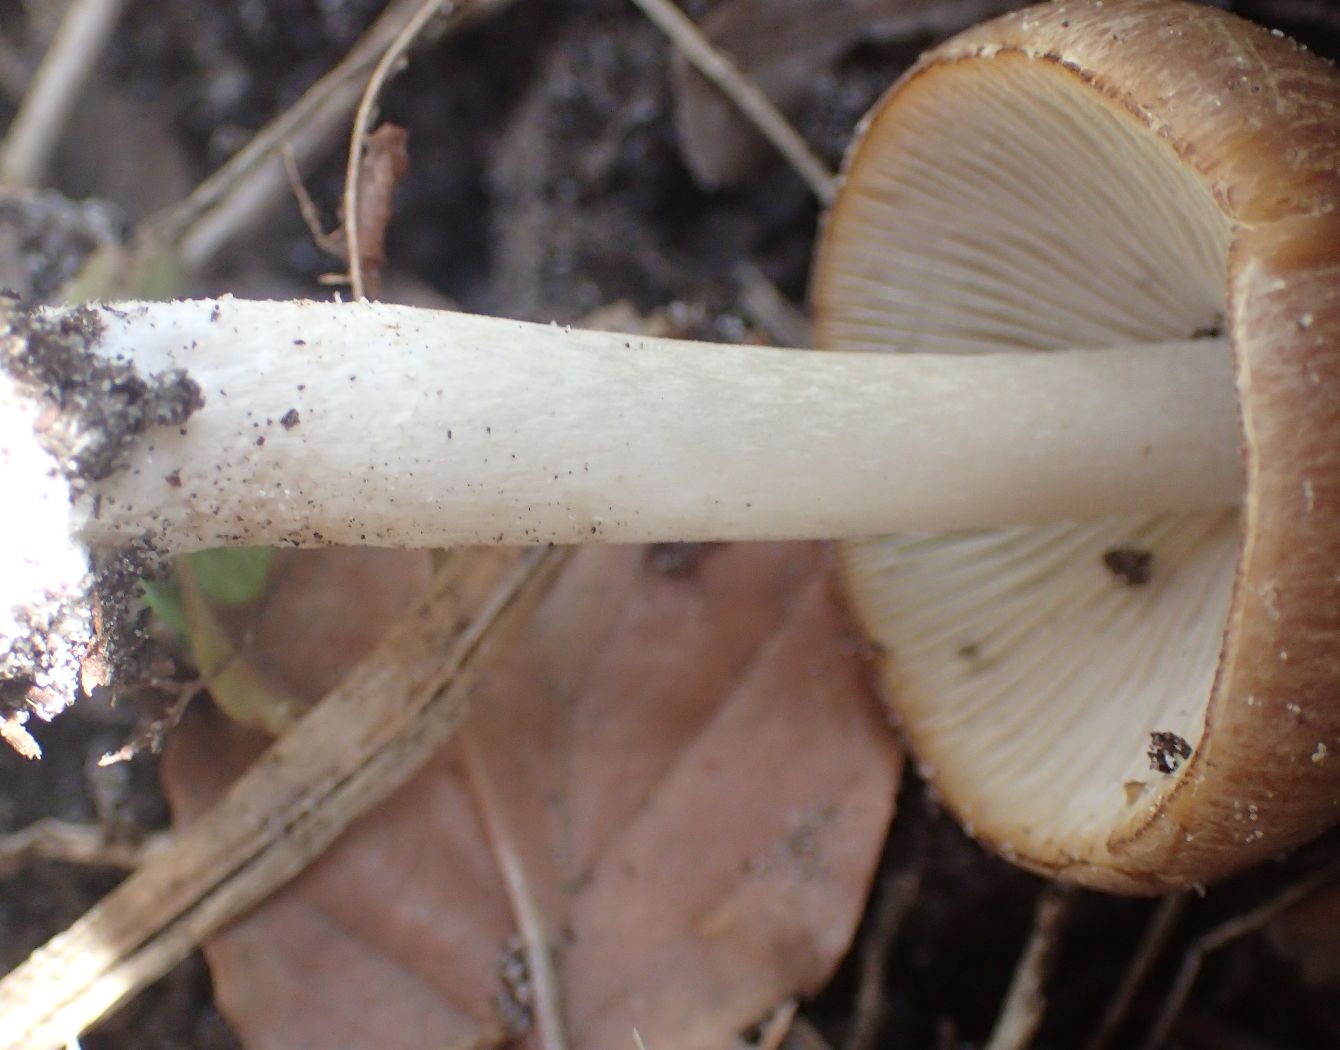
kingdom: Fungi
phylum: Basidiomycota
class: Agaricomycetes
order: Agaricales
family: Psathyrellaceae
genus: Psathyrella
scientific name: Psathyrella spadiceogrisea
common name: gråbrun mørkhat
